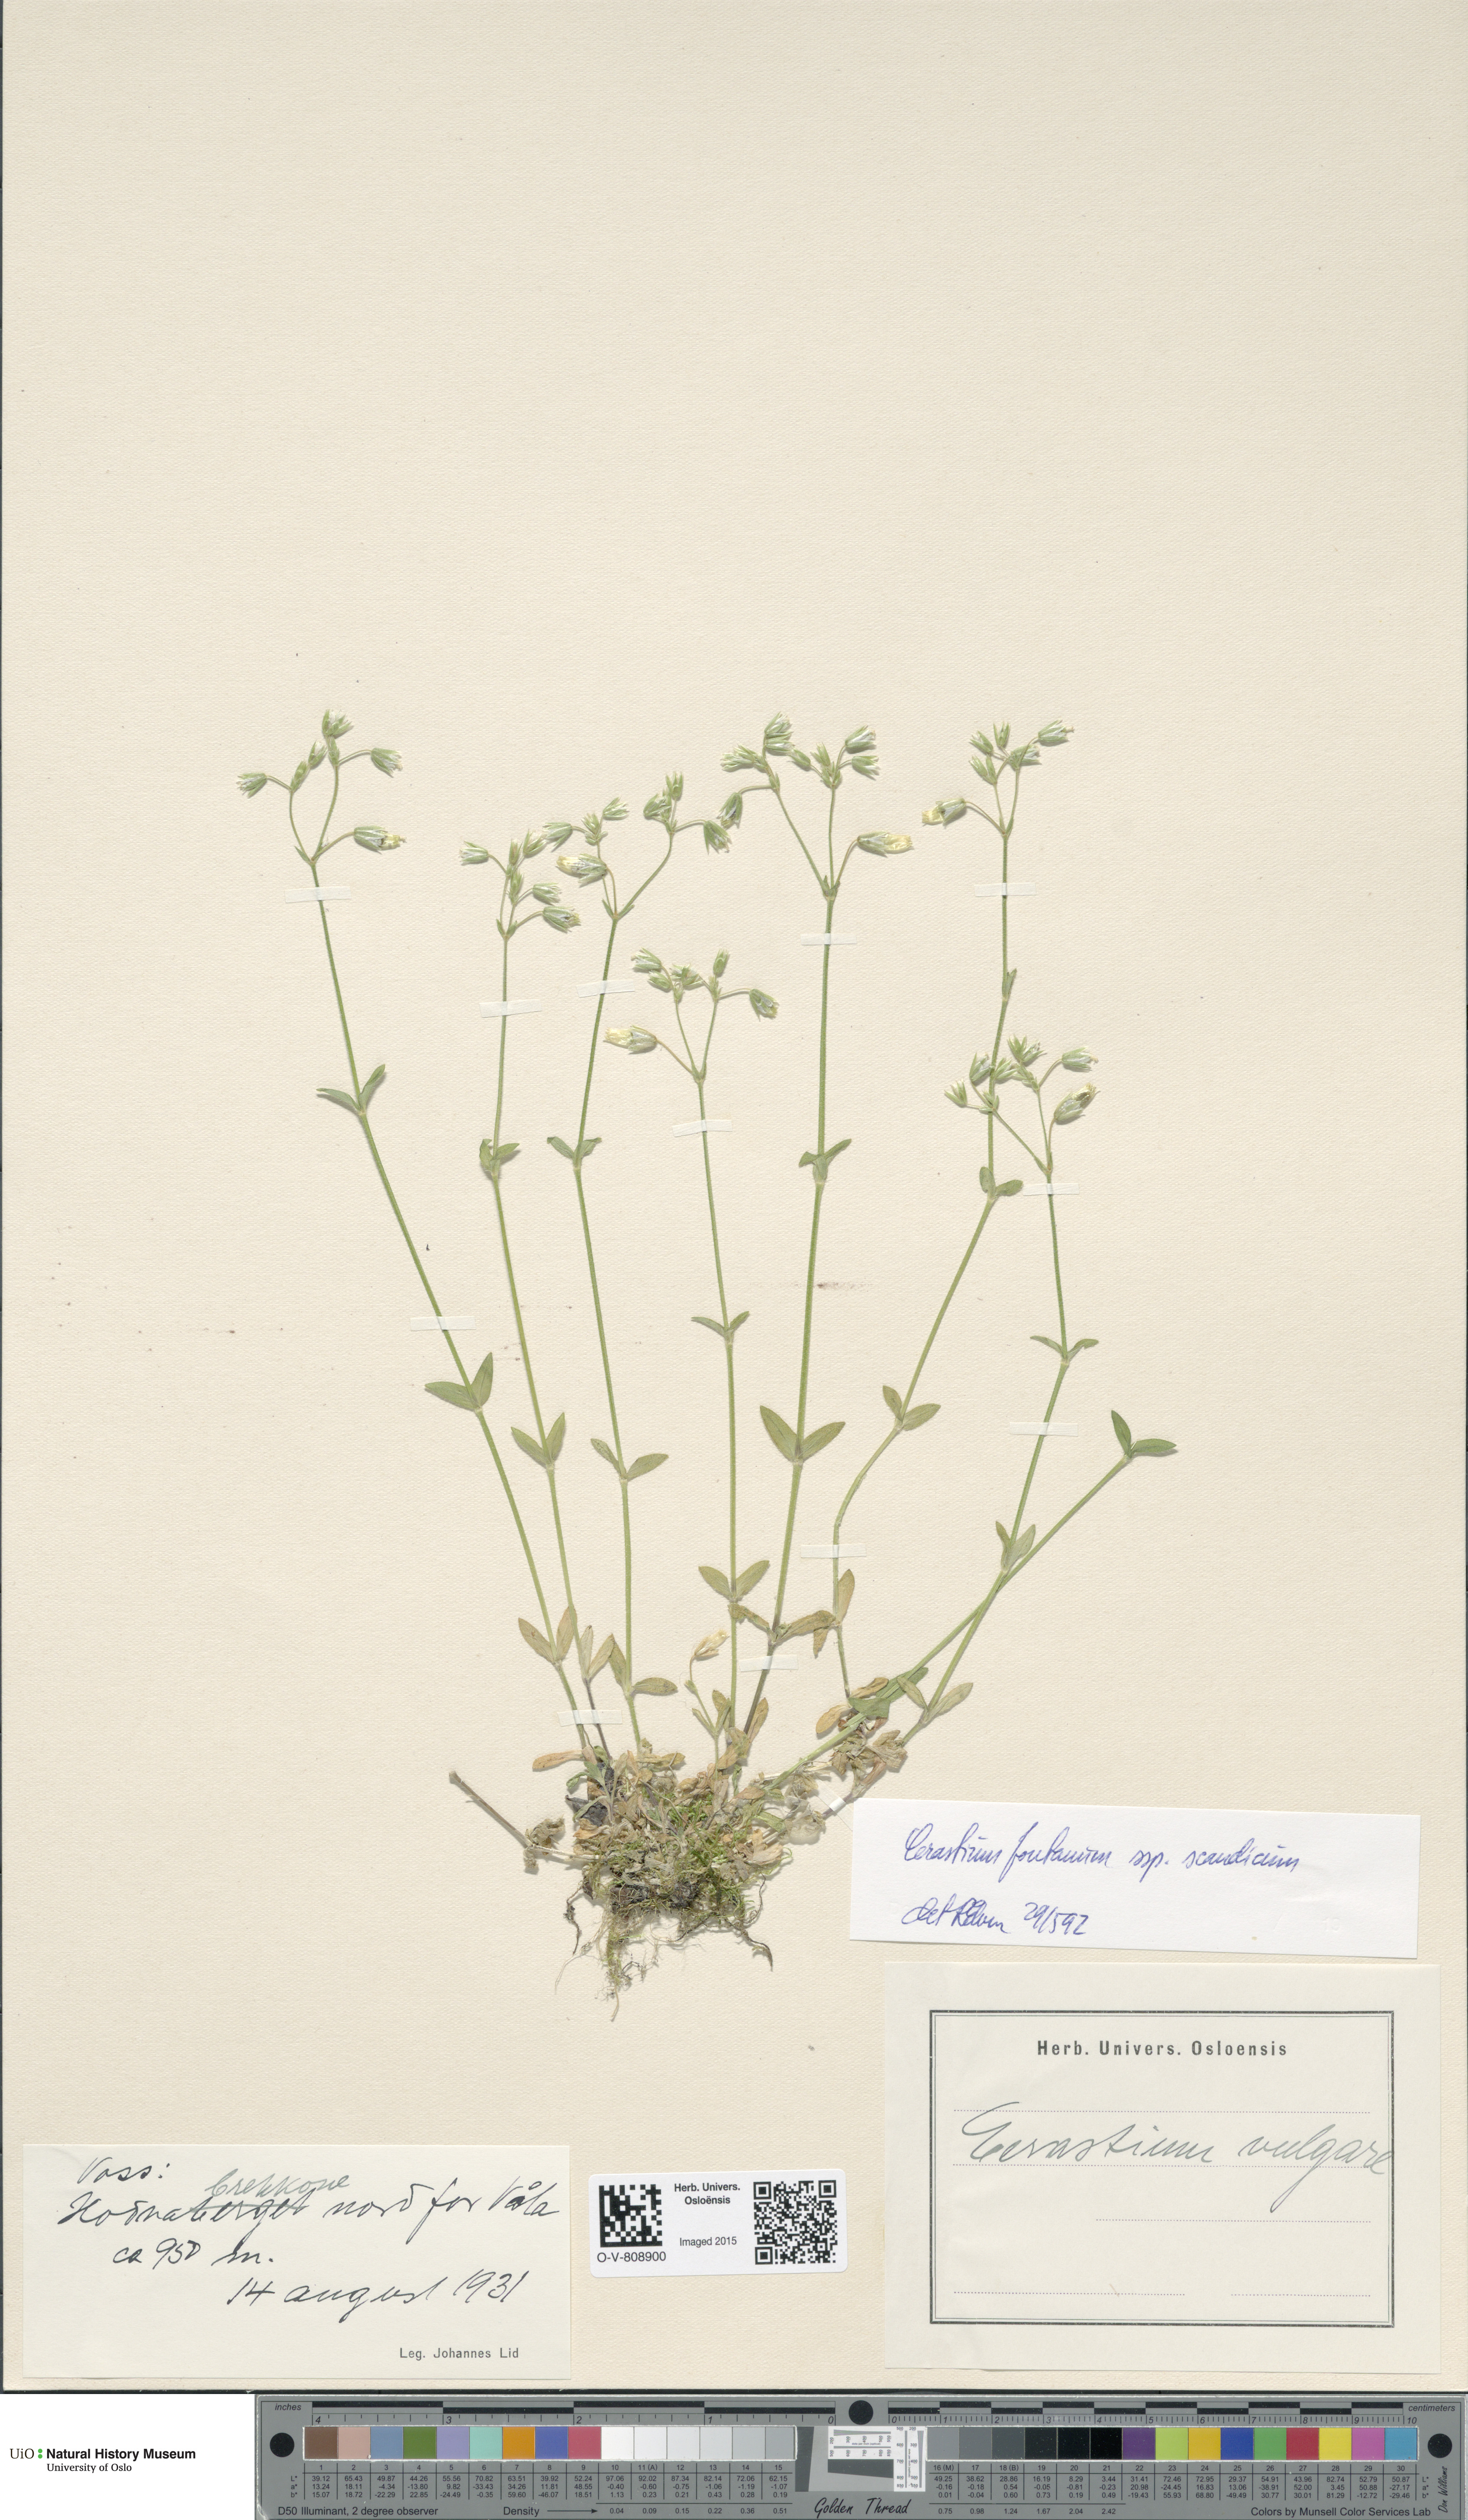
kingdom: Plantae
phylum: Tracheophyta
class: Magnoliopsida
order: Caryophyllales
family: Caryophyllaceae
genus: Cerastium
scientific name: Cerastium fontanum
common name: Common mouse-ear
